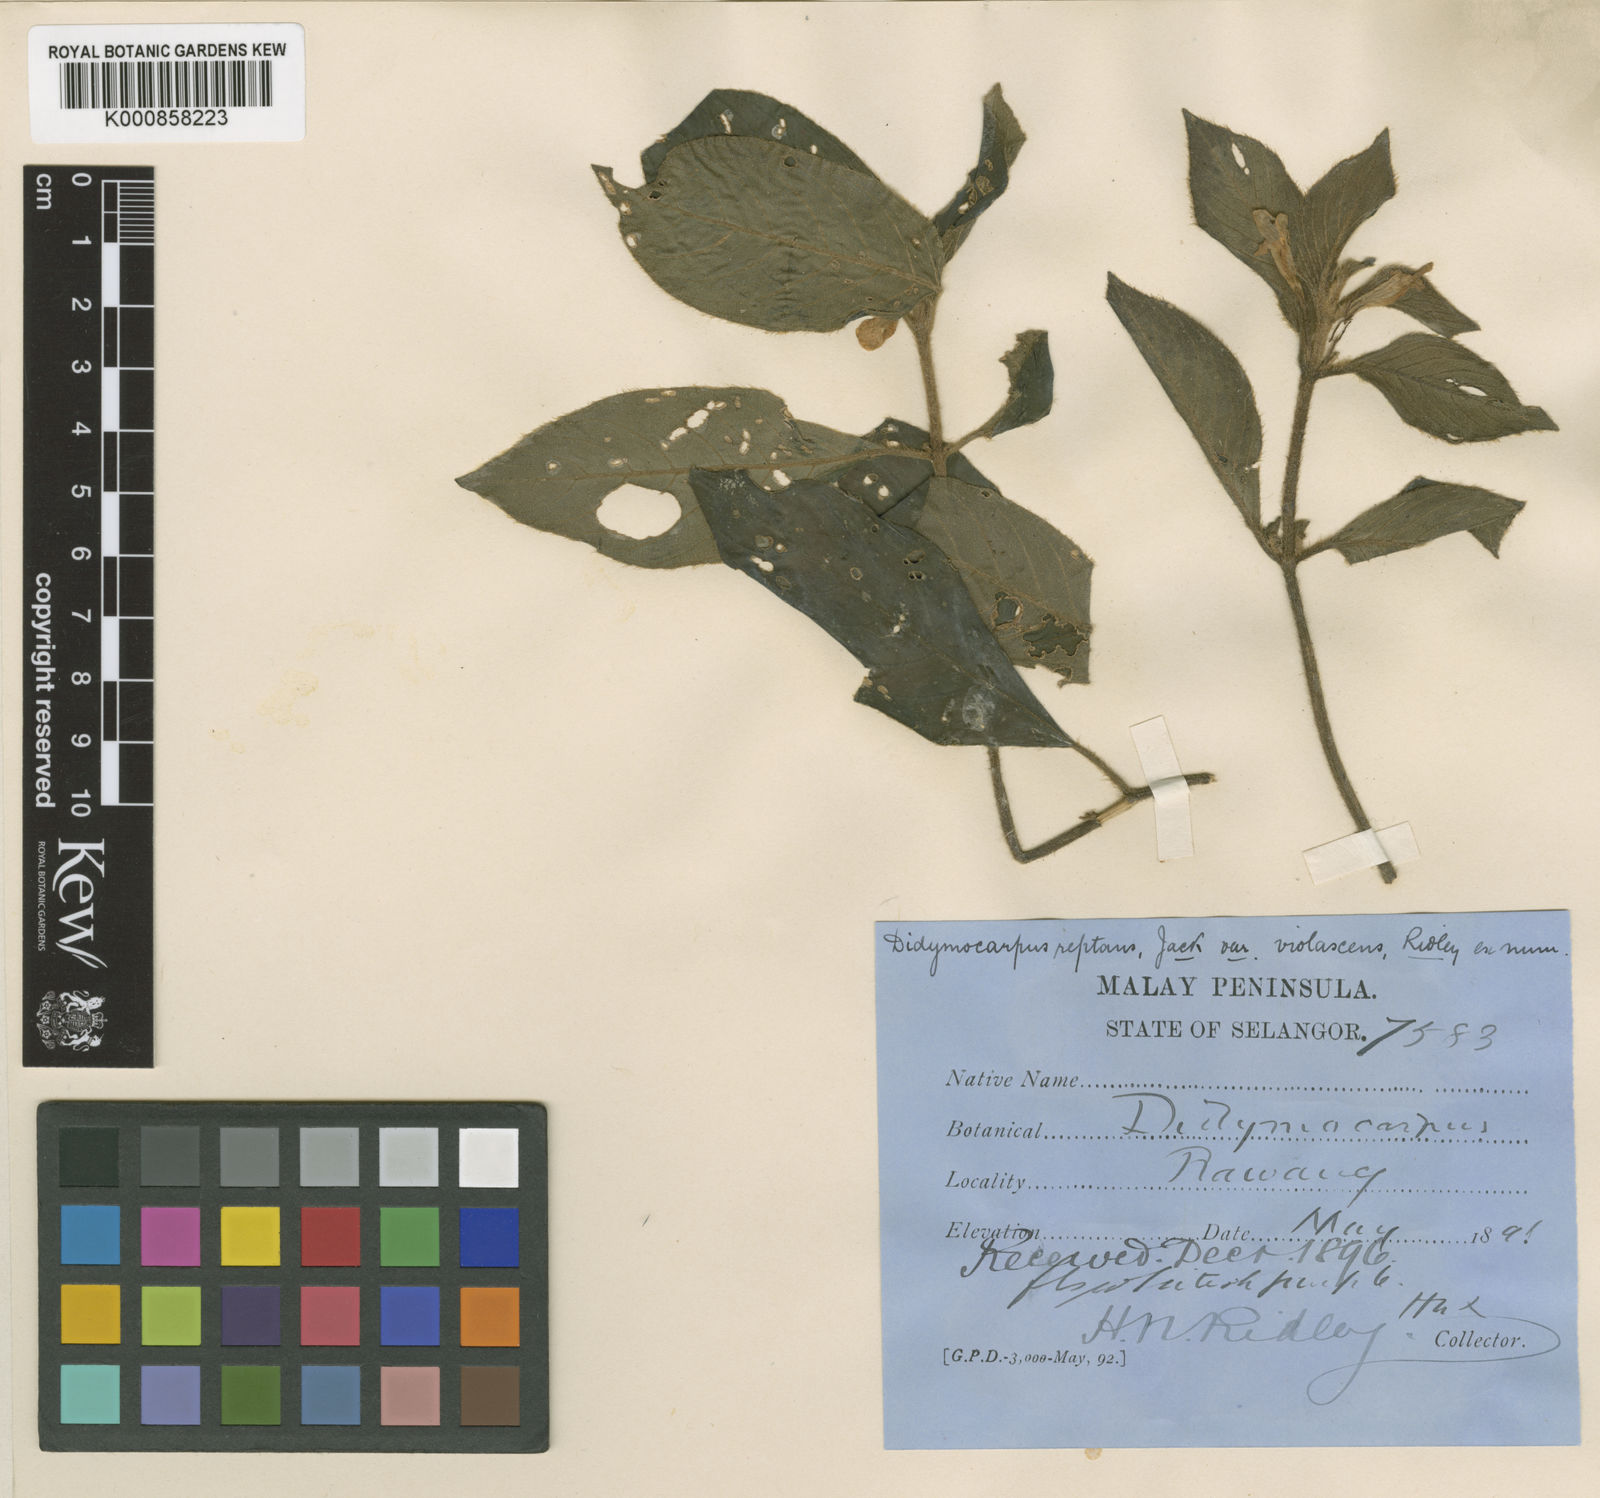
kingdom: Plantae
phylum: Tracheophyta
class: Magnoliopsida
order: Lamiales
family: Gesneriaceae
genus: Codonoboea
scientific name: Codonoboea reptans
